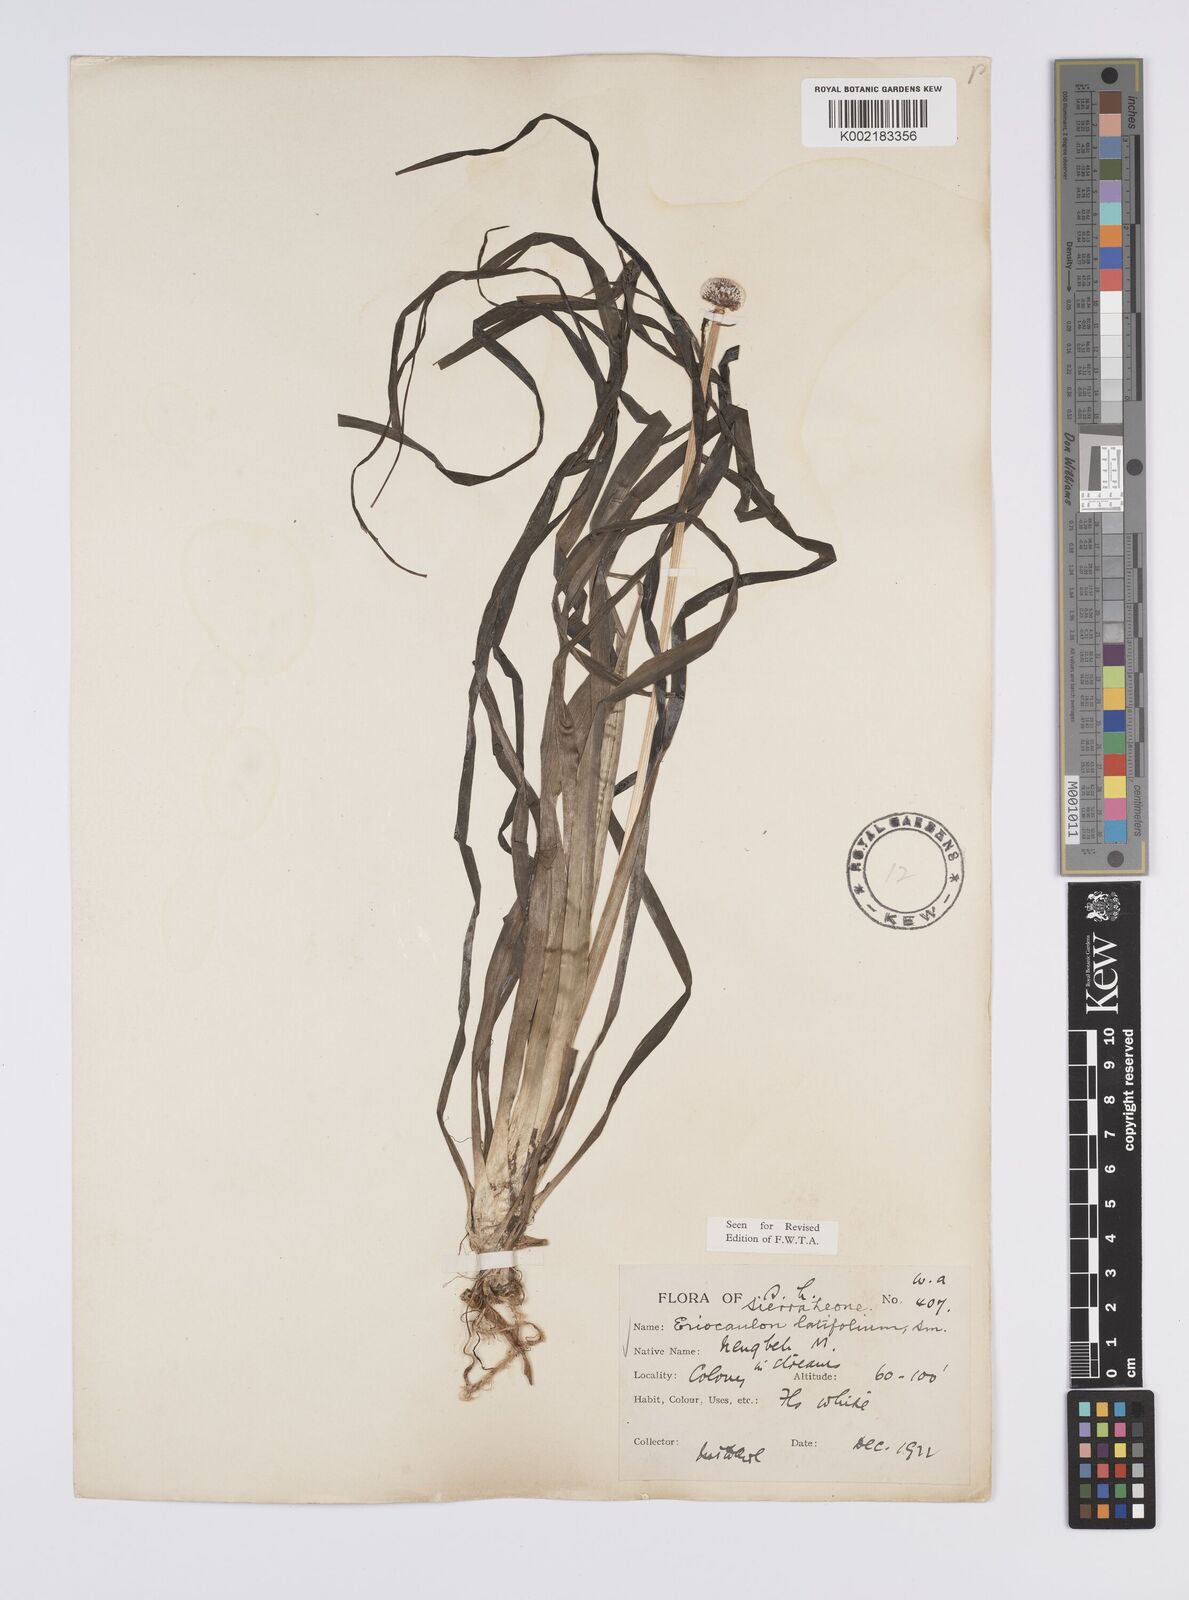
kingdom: Plantae
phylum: Tracheophyta
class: Liliopsida
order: Poales
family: Eriocaulaceae
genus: Eriocaulon
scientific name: Eriocaulon latifolium
